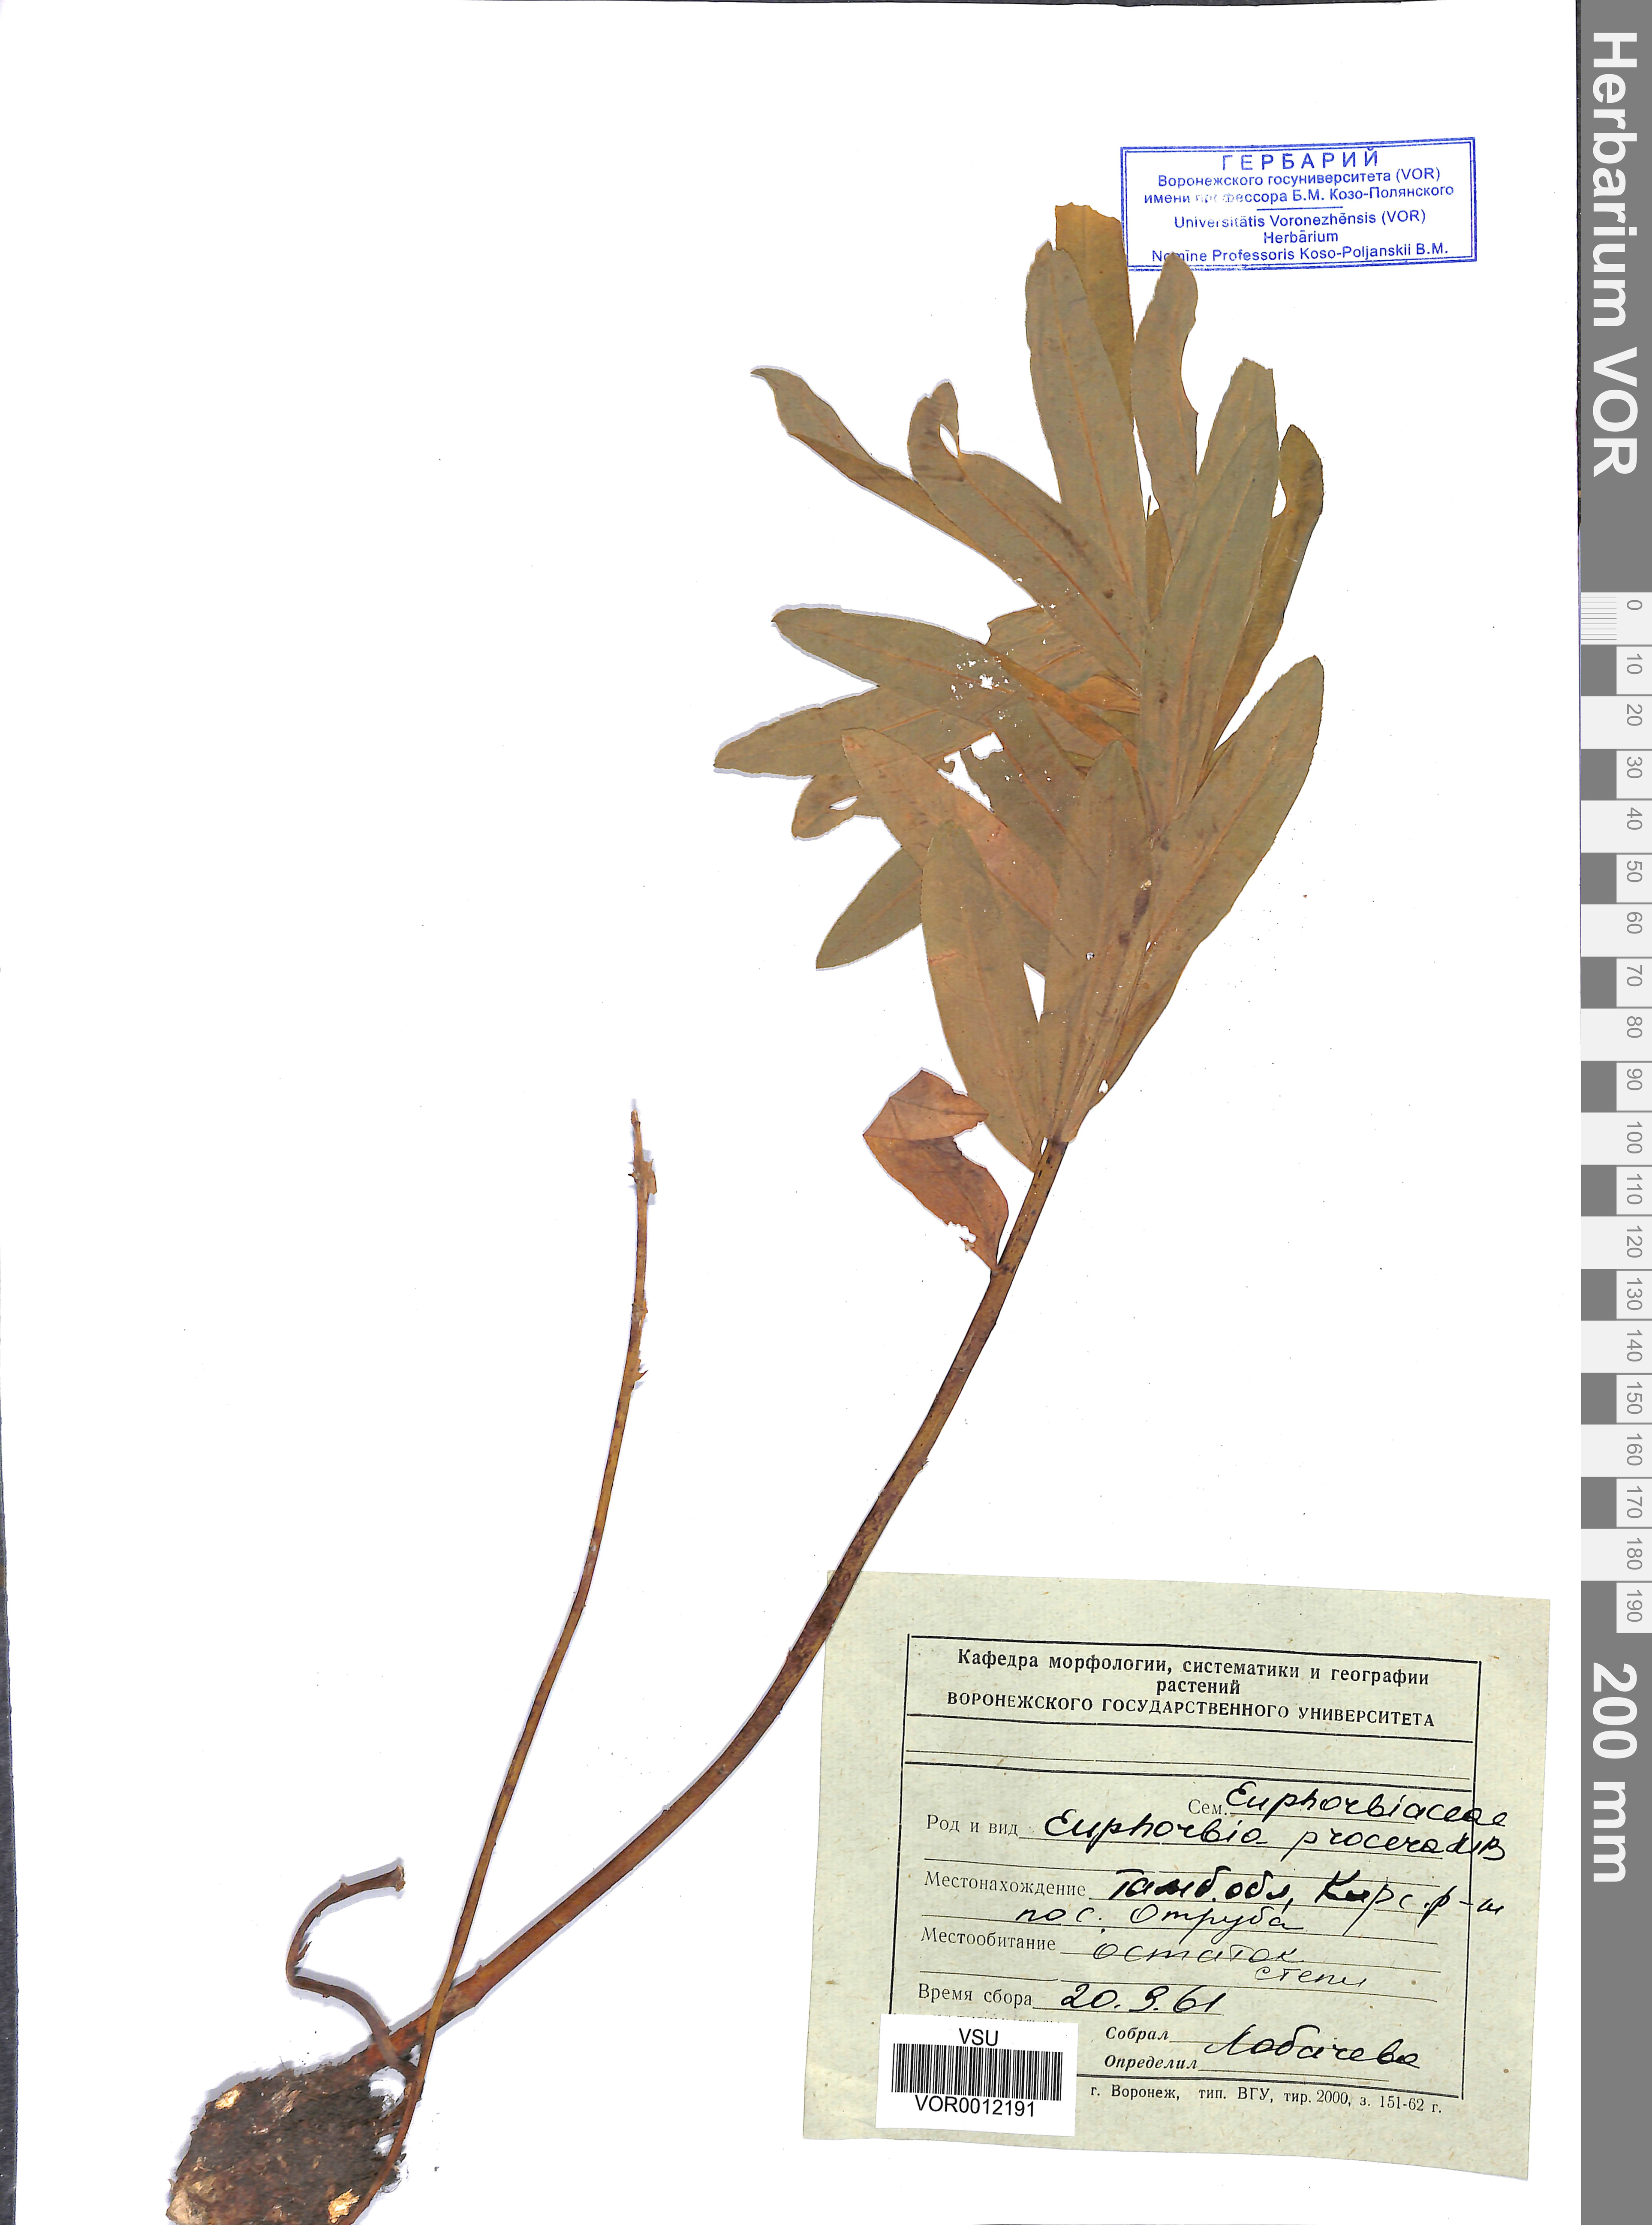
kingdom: Plantae
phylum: Tracheophyta
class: Magnoliopsida
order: Malpighiales
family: Euphorbiaceae
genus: Euphorbia
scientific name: Euphorbia procera
